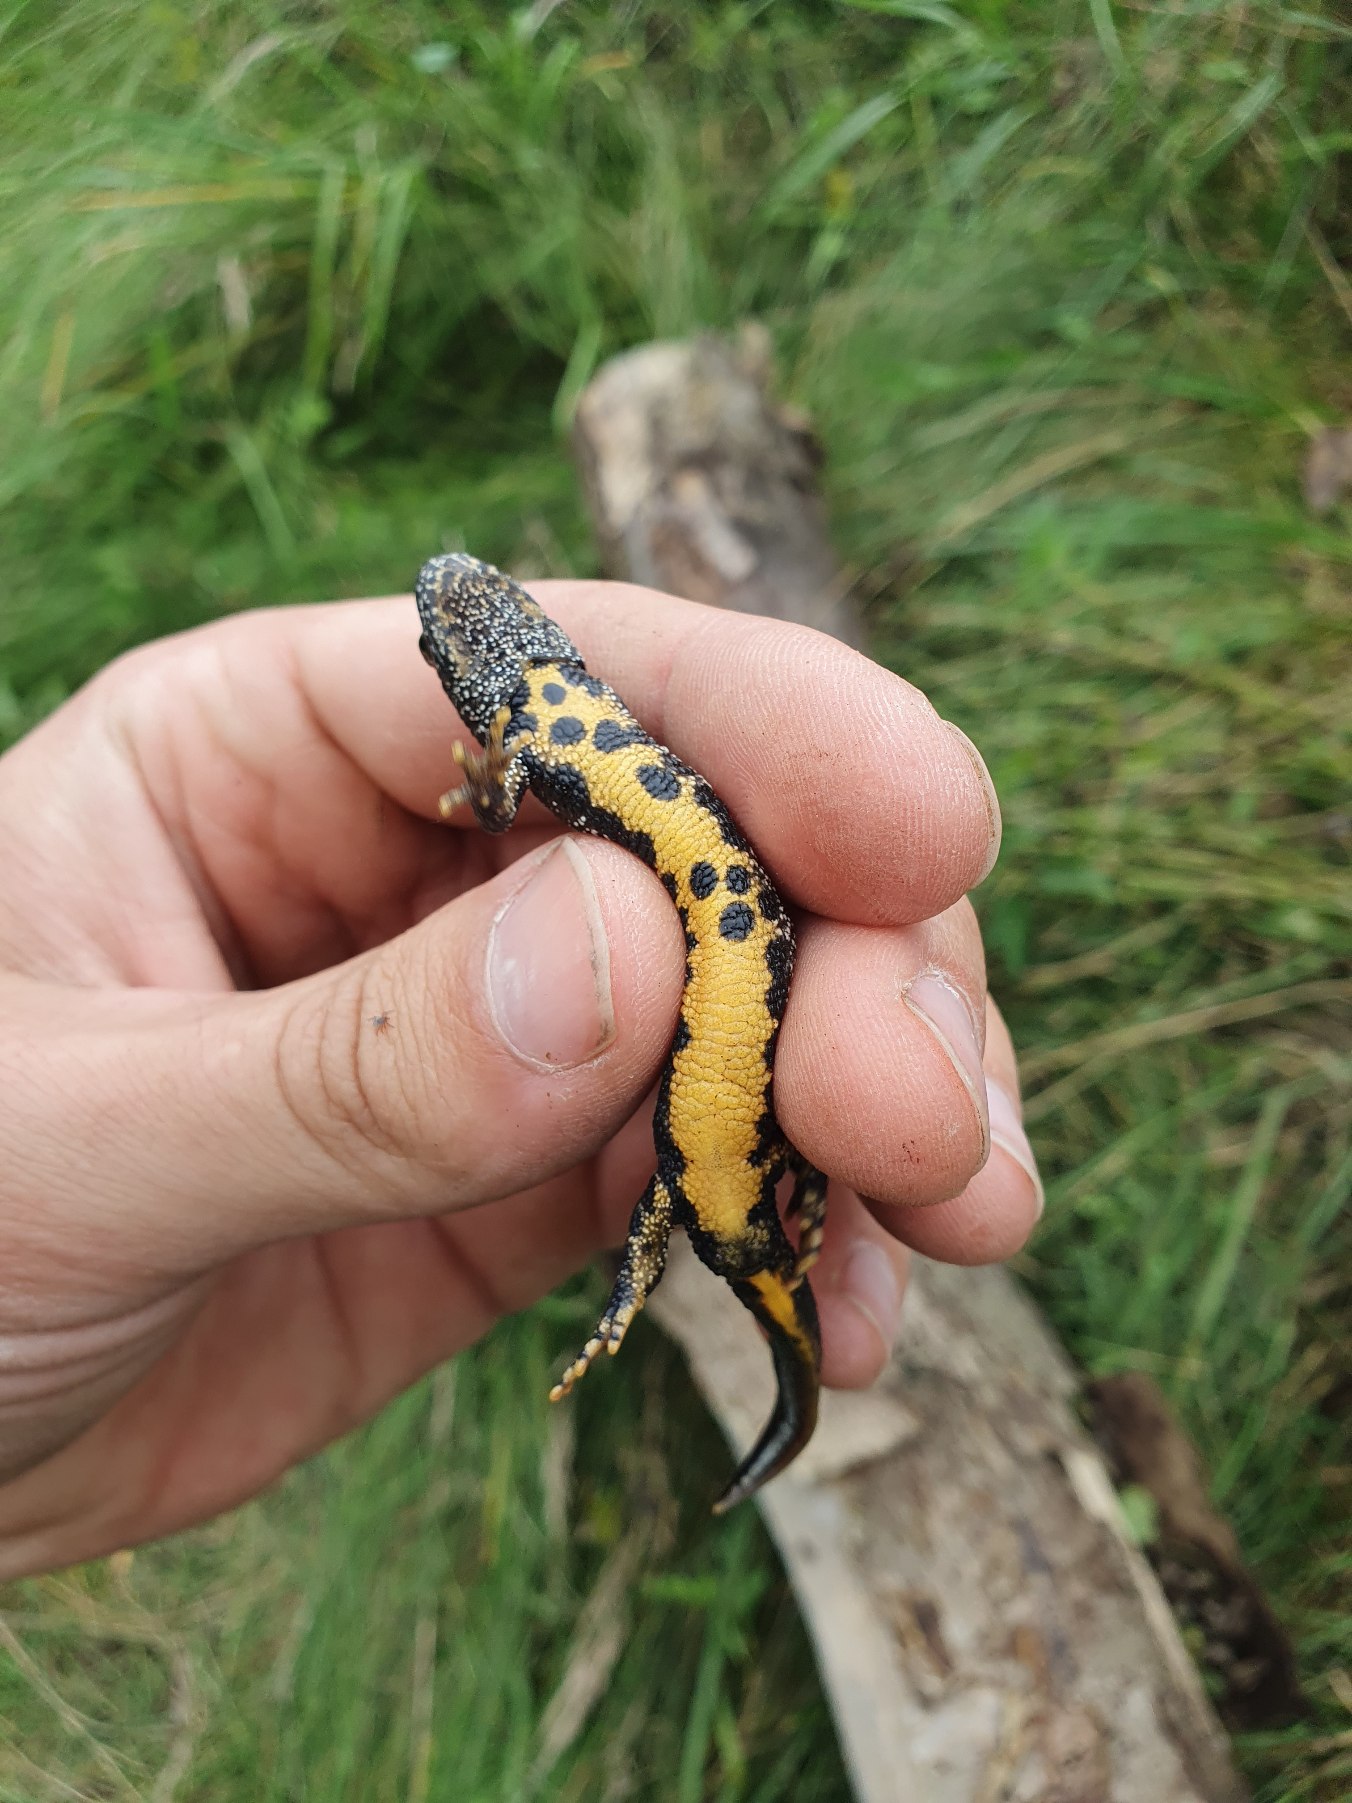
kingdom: Animalia
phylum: Chordata
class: Amphibia
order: Caudata
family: Salamandridae
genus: Triturus
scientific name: Triturus cristatus
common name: Stor vandsalamander
